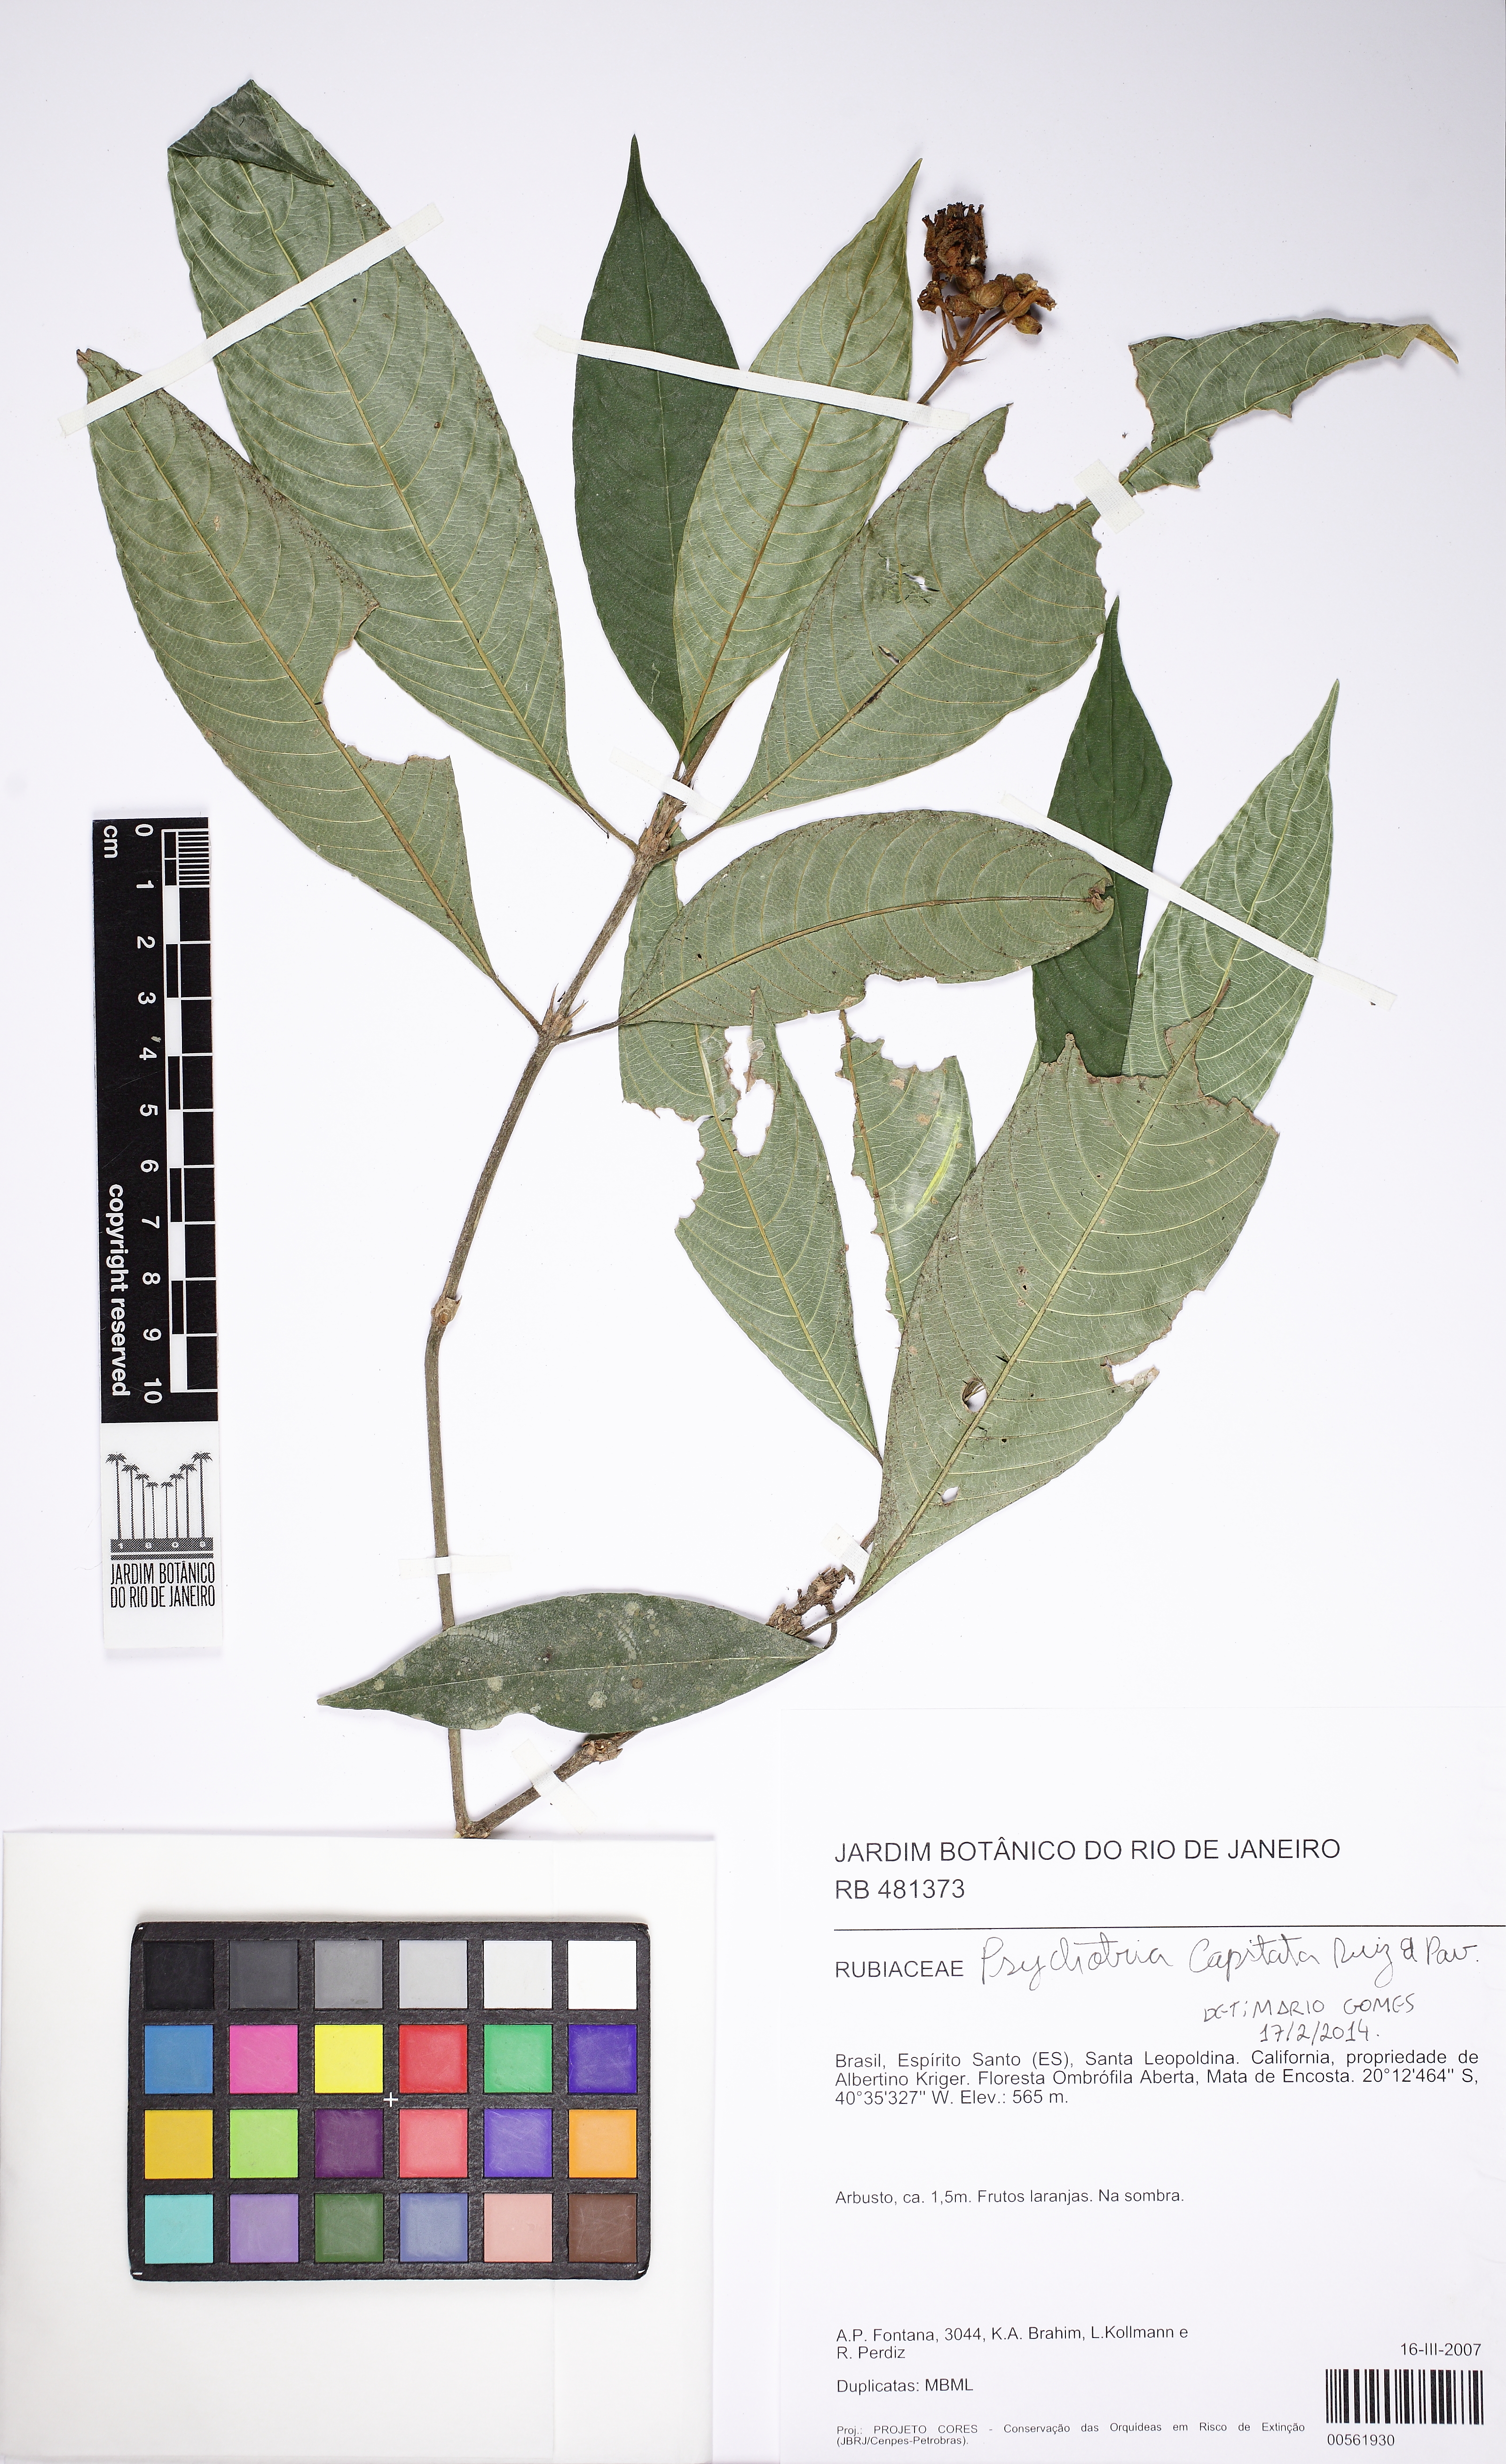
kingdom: Plantae
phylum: Tracheophyta
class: Magnoliopsida
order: Gentianales
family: Rubiaceae
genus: Palicourea
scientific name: Palicourea violacea
